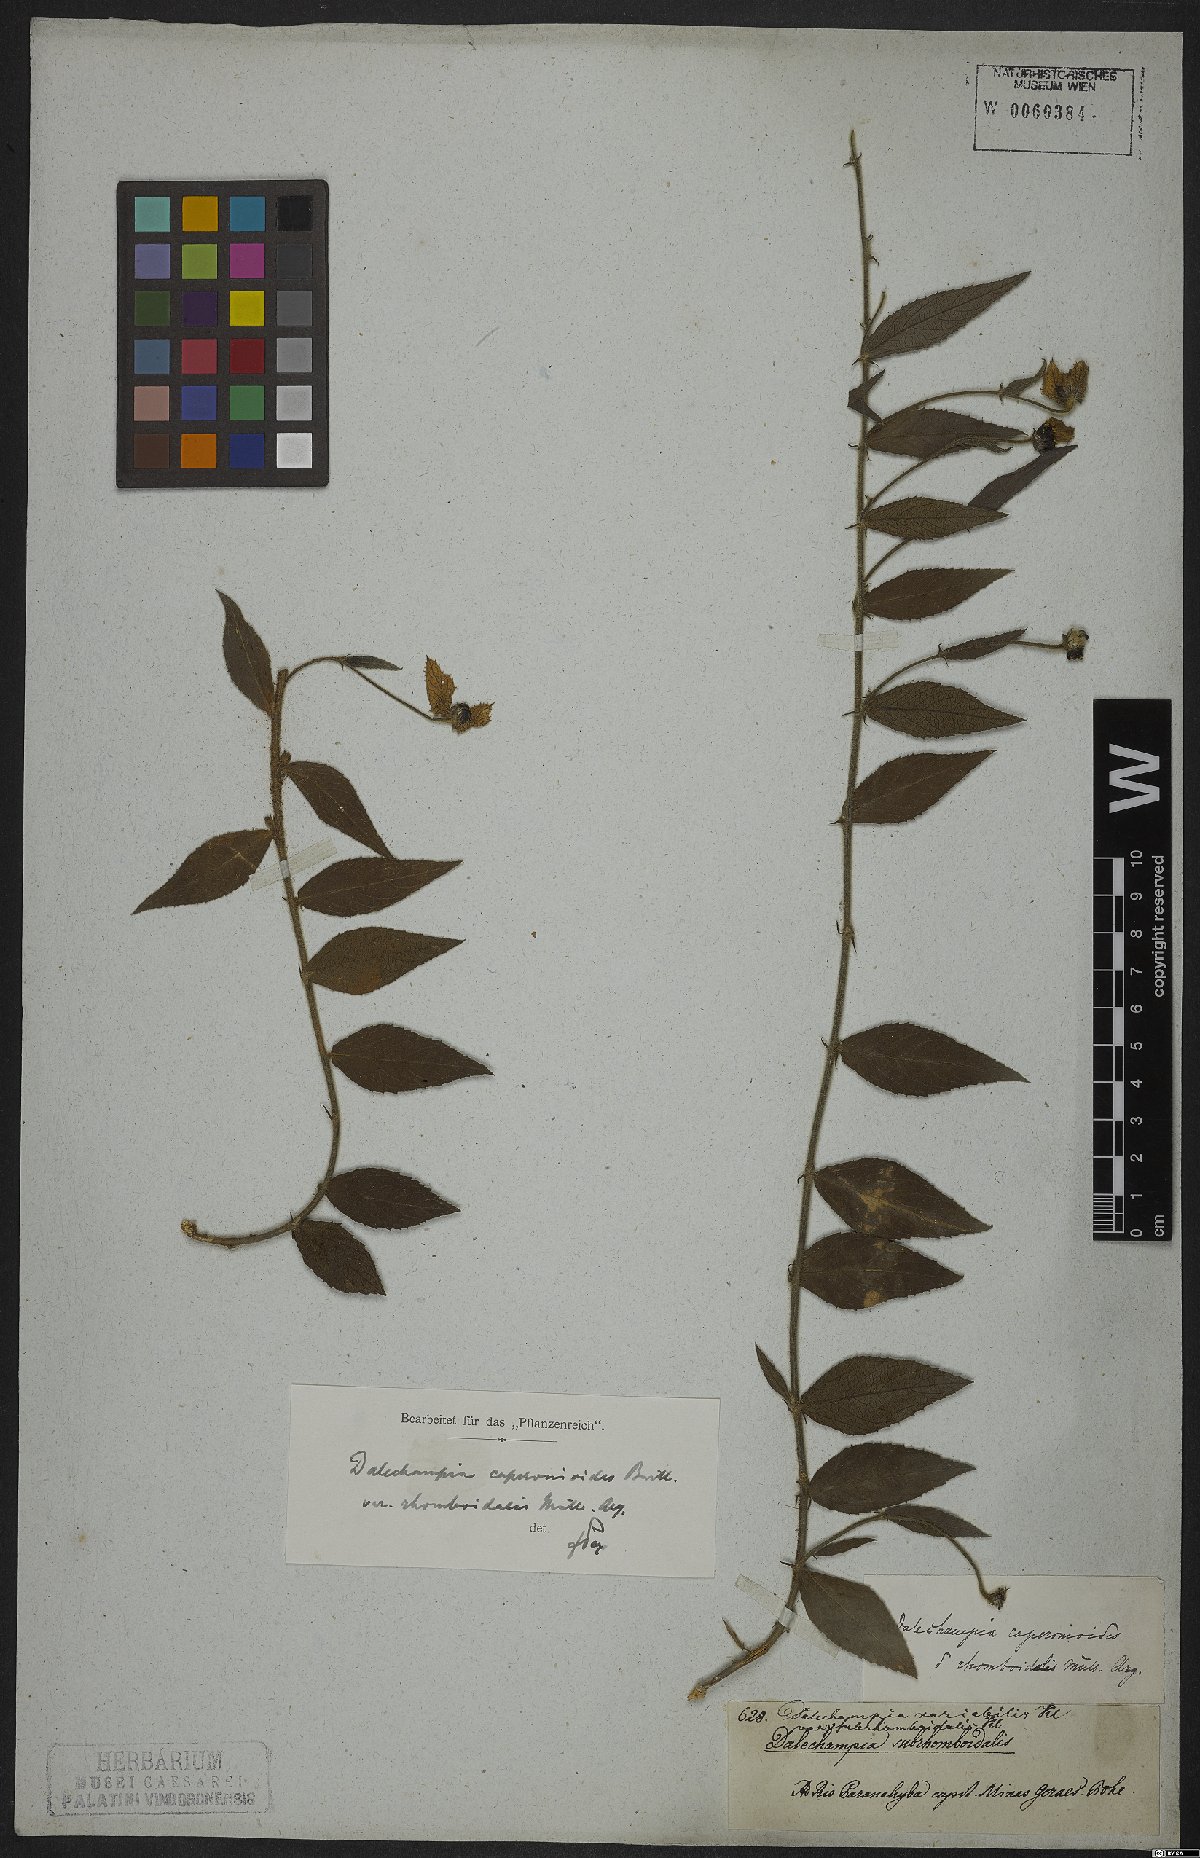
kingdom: Plantae
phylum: Tracheophyta
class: Magnoliopsida
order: Malpighiales
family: Euphorbiaceae
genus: Dalechampia
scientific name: Dalechampia caperonioides
